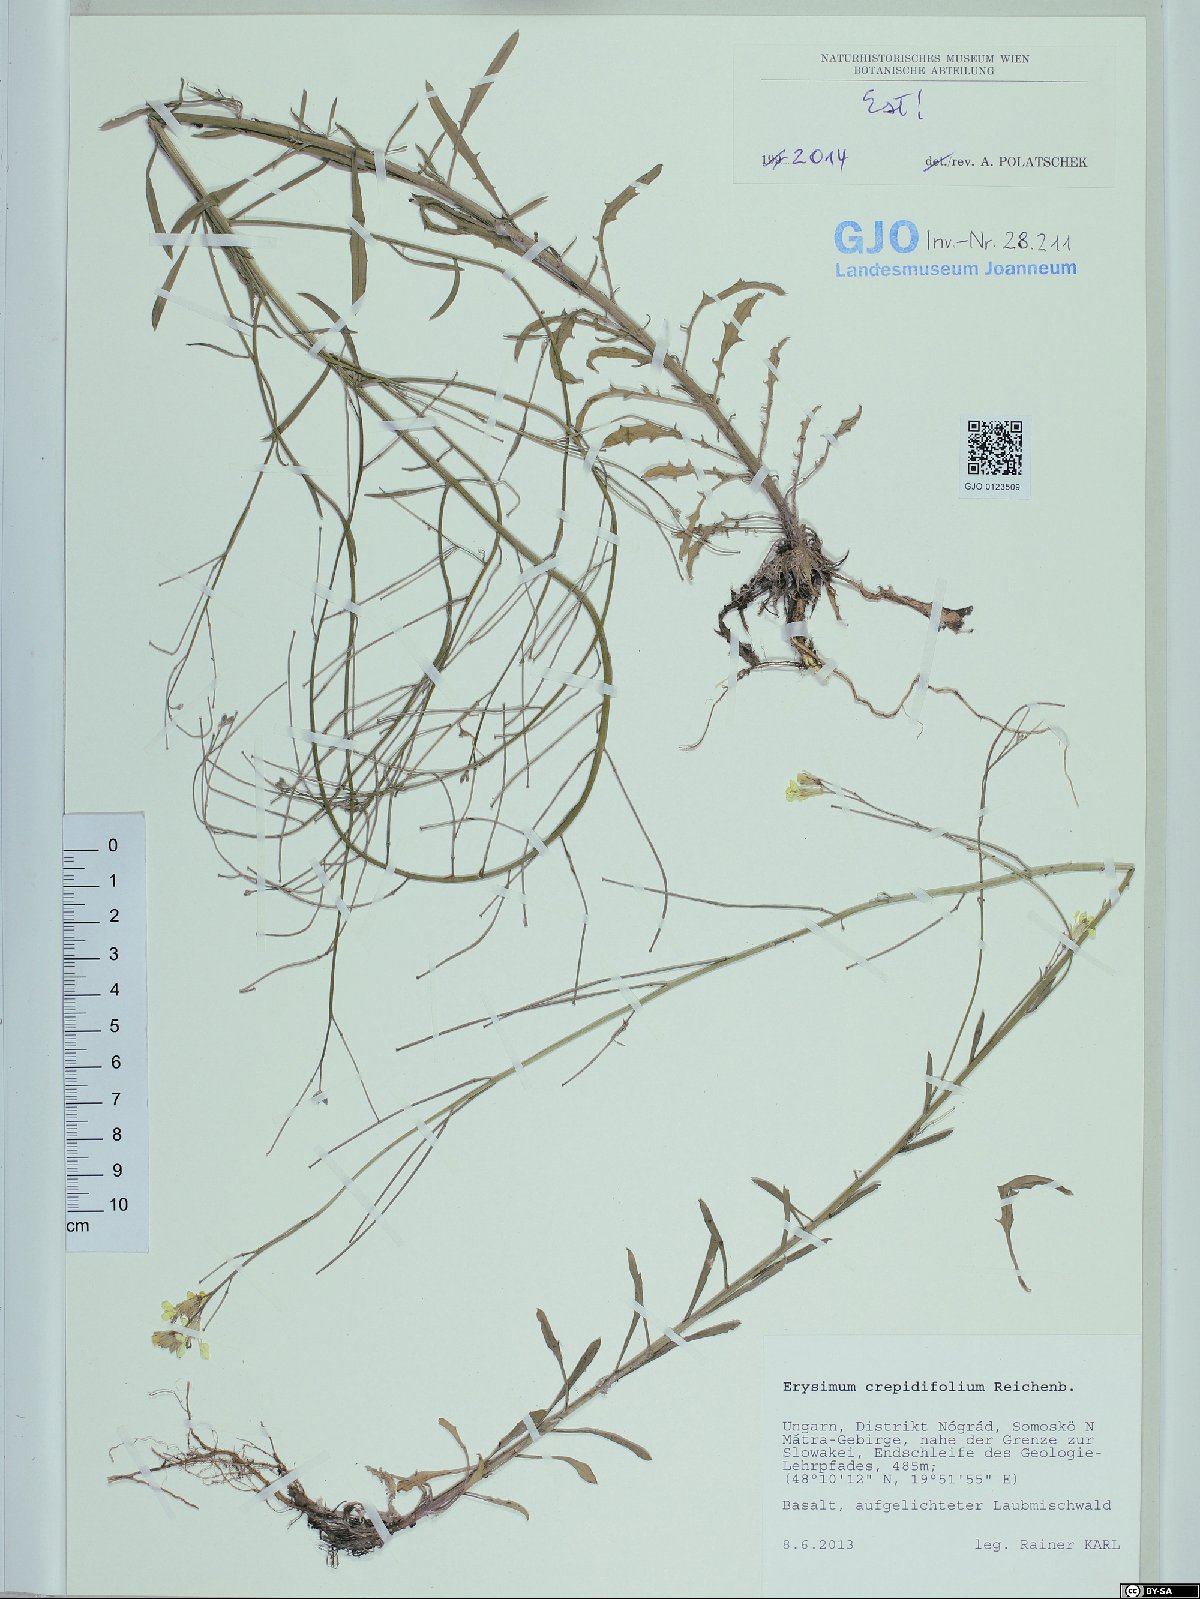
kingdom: Plantae
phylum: Tracheophyta
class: Magnoliopsida
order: Brassicales
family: Brassicaceae
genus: Erysimum
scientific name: Erysimum crepidifolium
